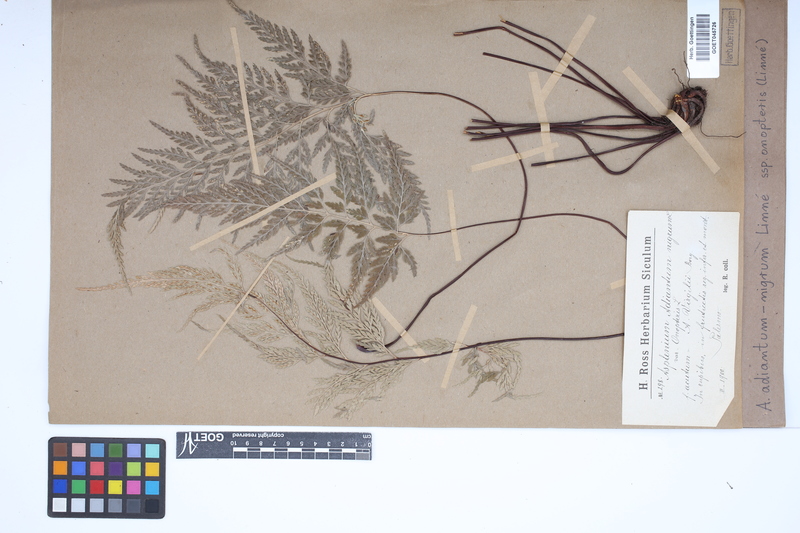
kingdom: Plantae
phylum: Tracheophyta
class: Polypodiopsida
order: Polypodiales
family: Aspleniaceae
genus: Asplenium
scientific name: Asplenium onopteris
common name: Irish spleenwort
